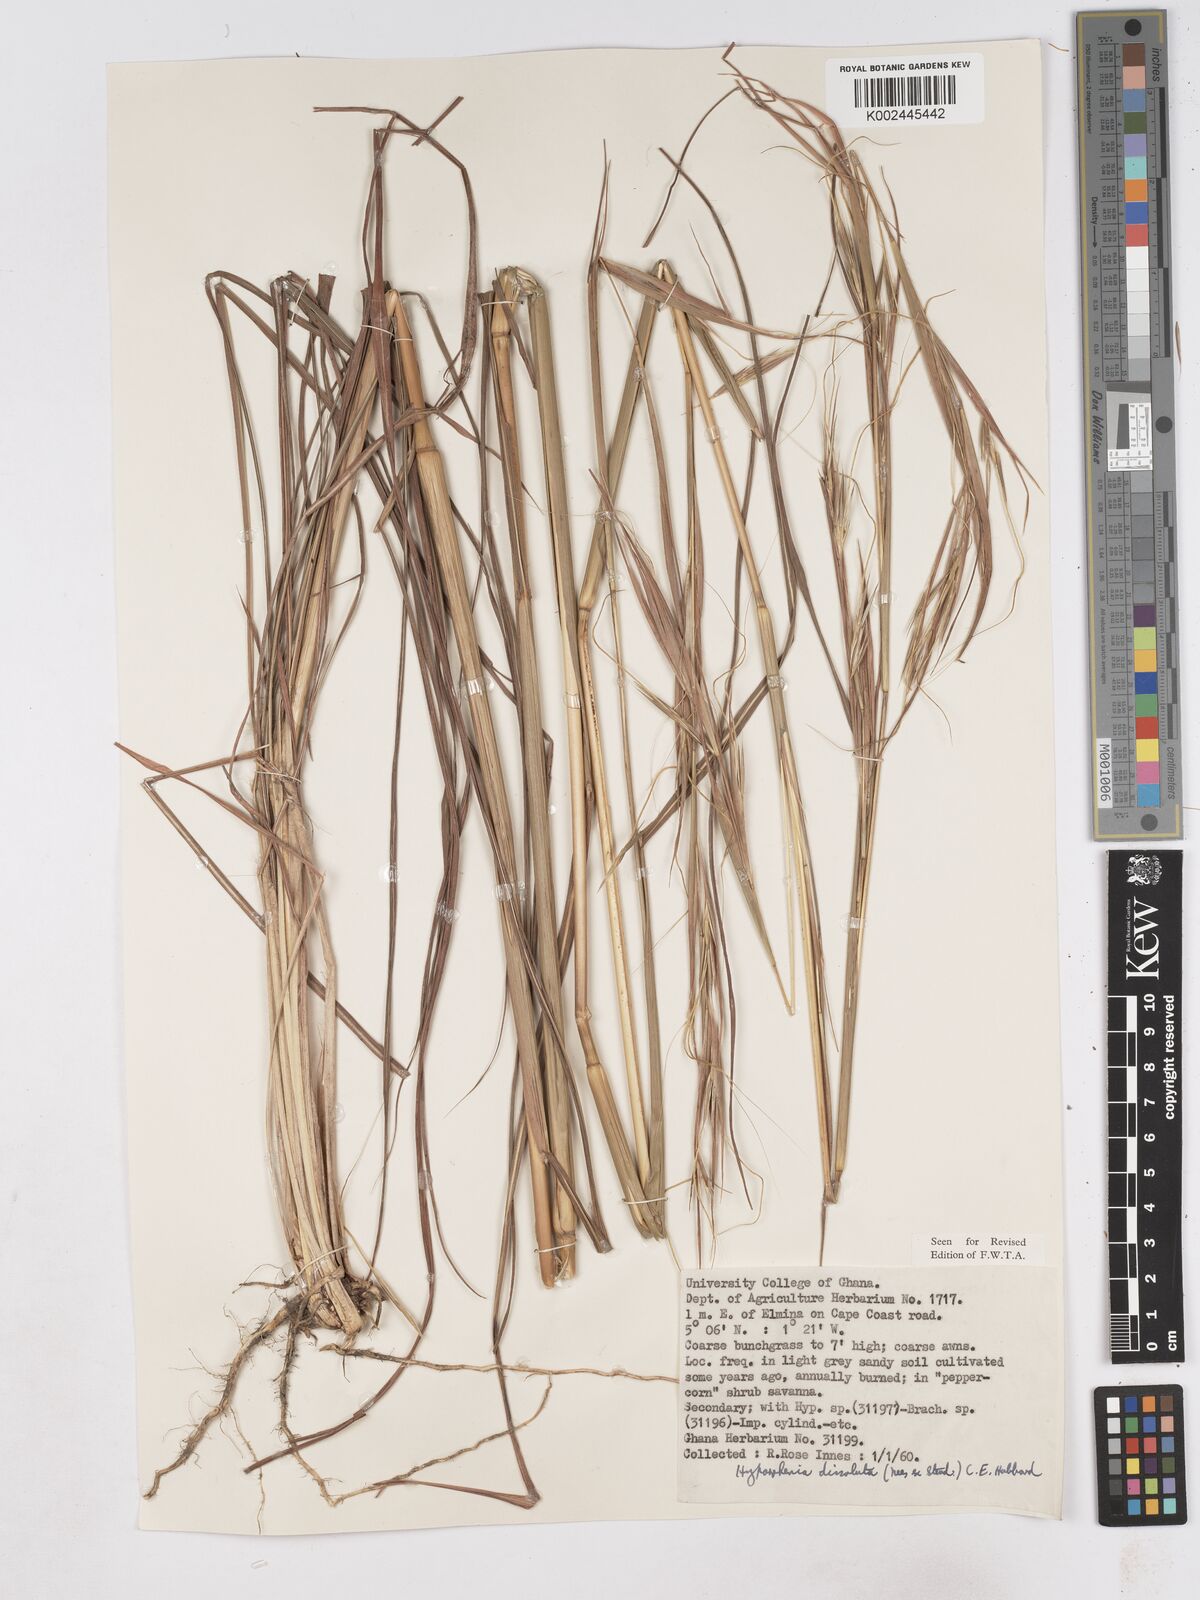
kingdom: Plantae
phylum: Tracheophyta
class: Liliopsida
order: Poales
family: Poaceae
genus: Hyperthelia
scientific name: Hyperthelia dissoluta
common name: Yellow thatching grass
